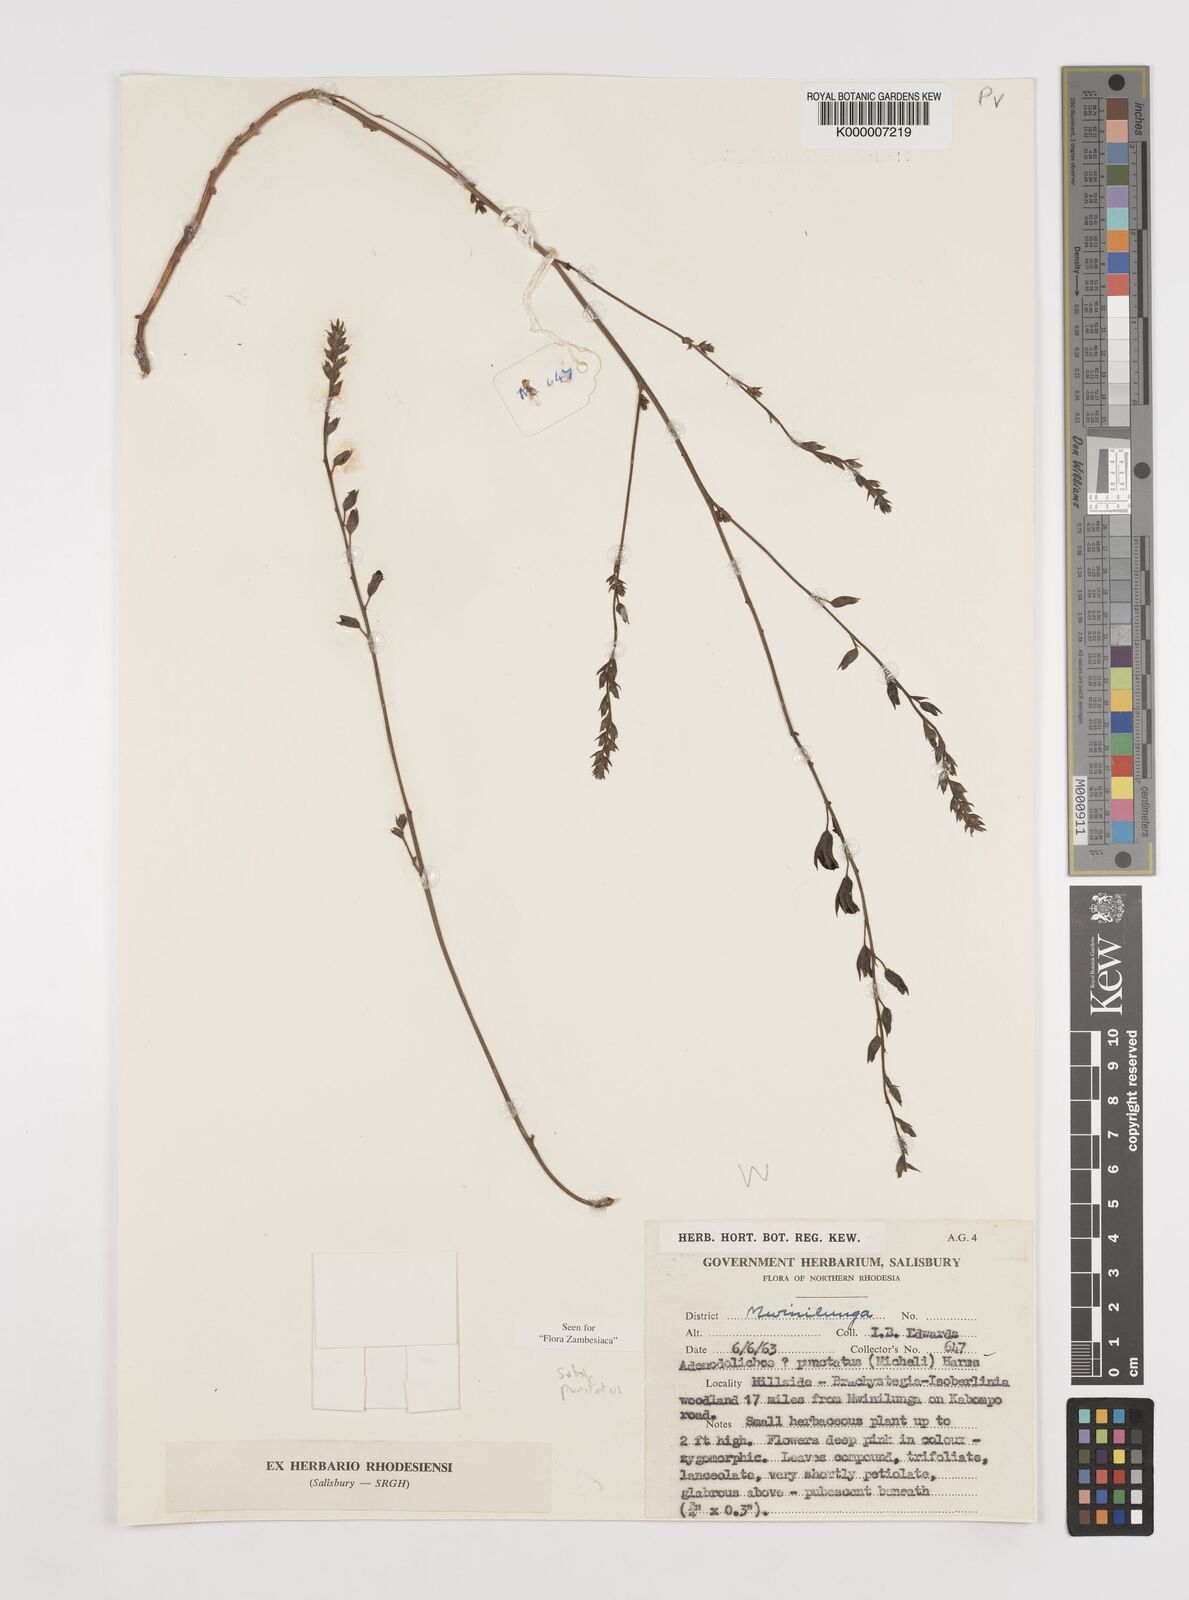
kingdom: Plantae
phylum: Tracheophyta
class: Magnoliopsida
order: Fabales
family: Fabaceae
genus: Adenodolichos
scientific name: Adenodolichos punctatus
